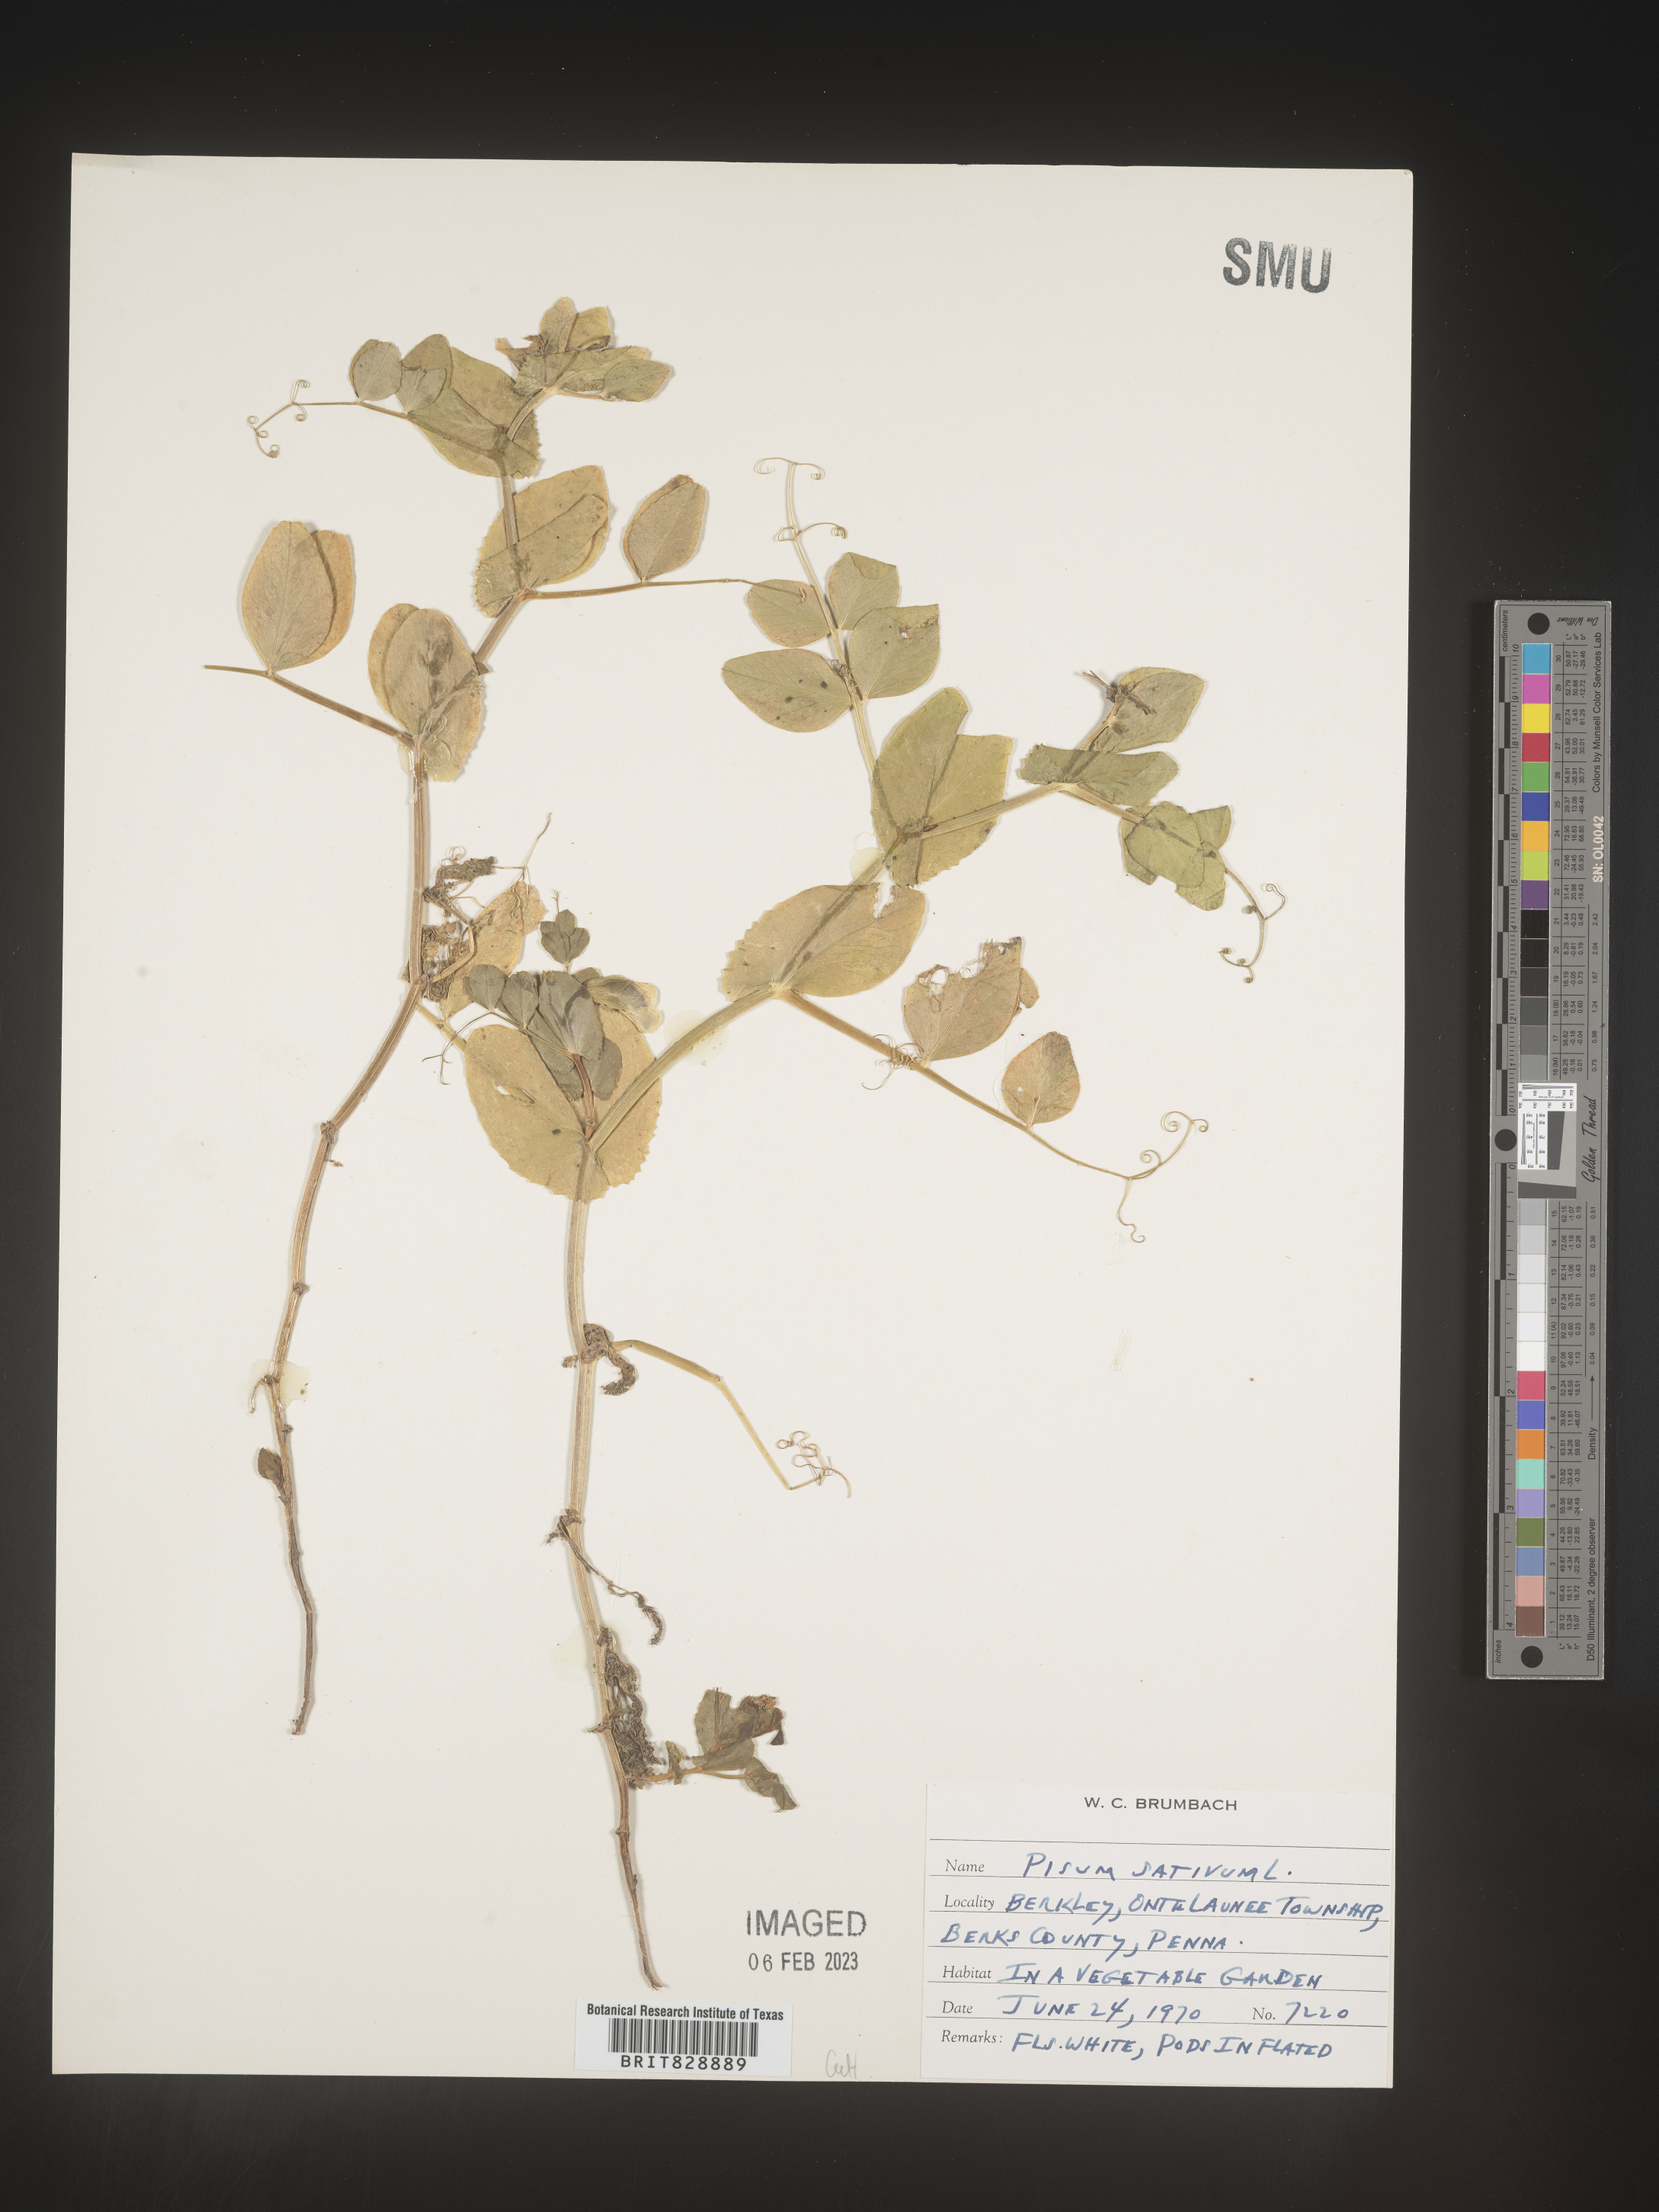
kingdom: Animalia
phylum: Mollusca
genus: Pisum
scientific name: Pisum
